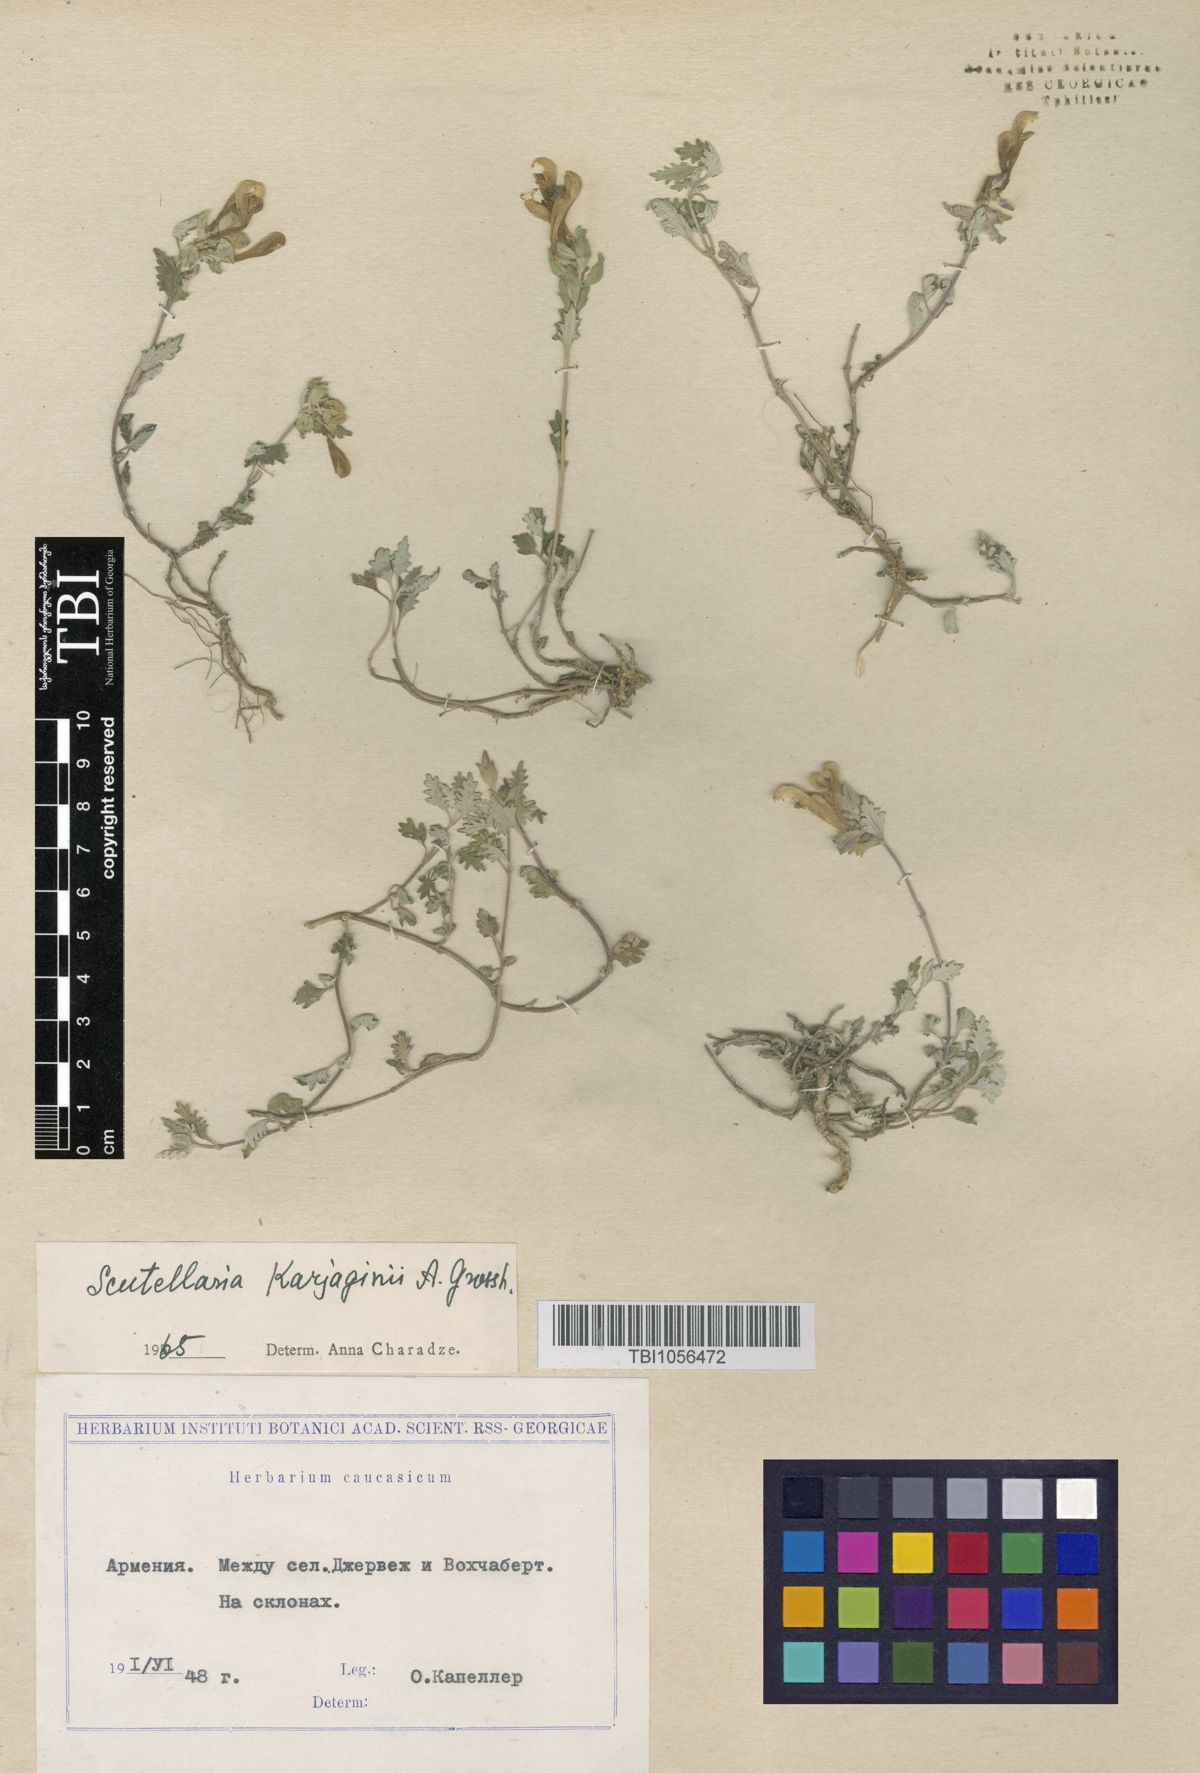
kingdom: Plantae
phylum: Tracheophyta
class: Magnoliopsida
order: Lamiales
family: Lamiaceae
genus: Scutellaria
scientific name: Scutellaria karjaginii
